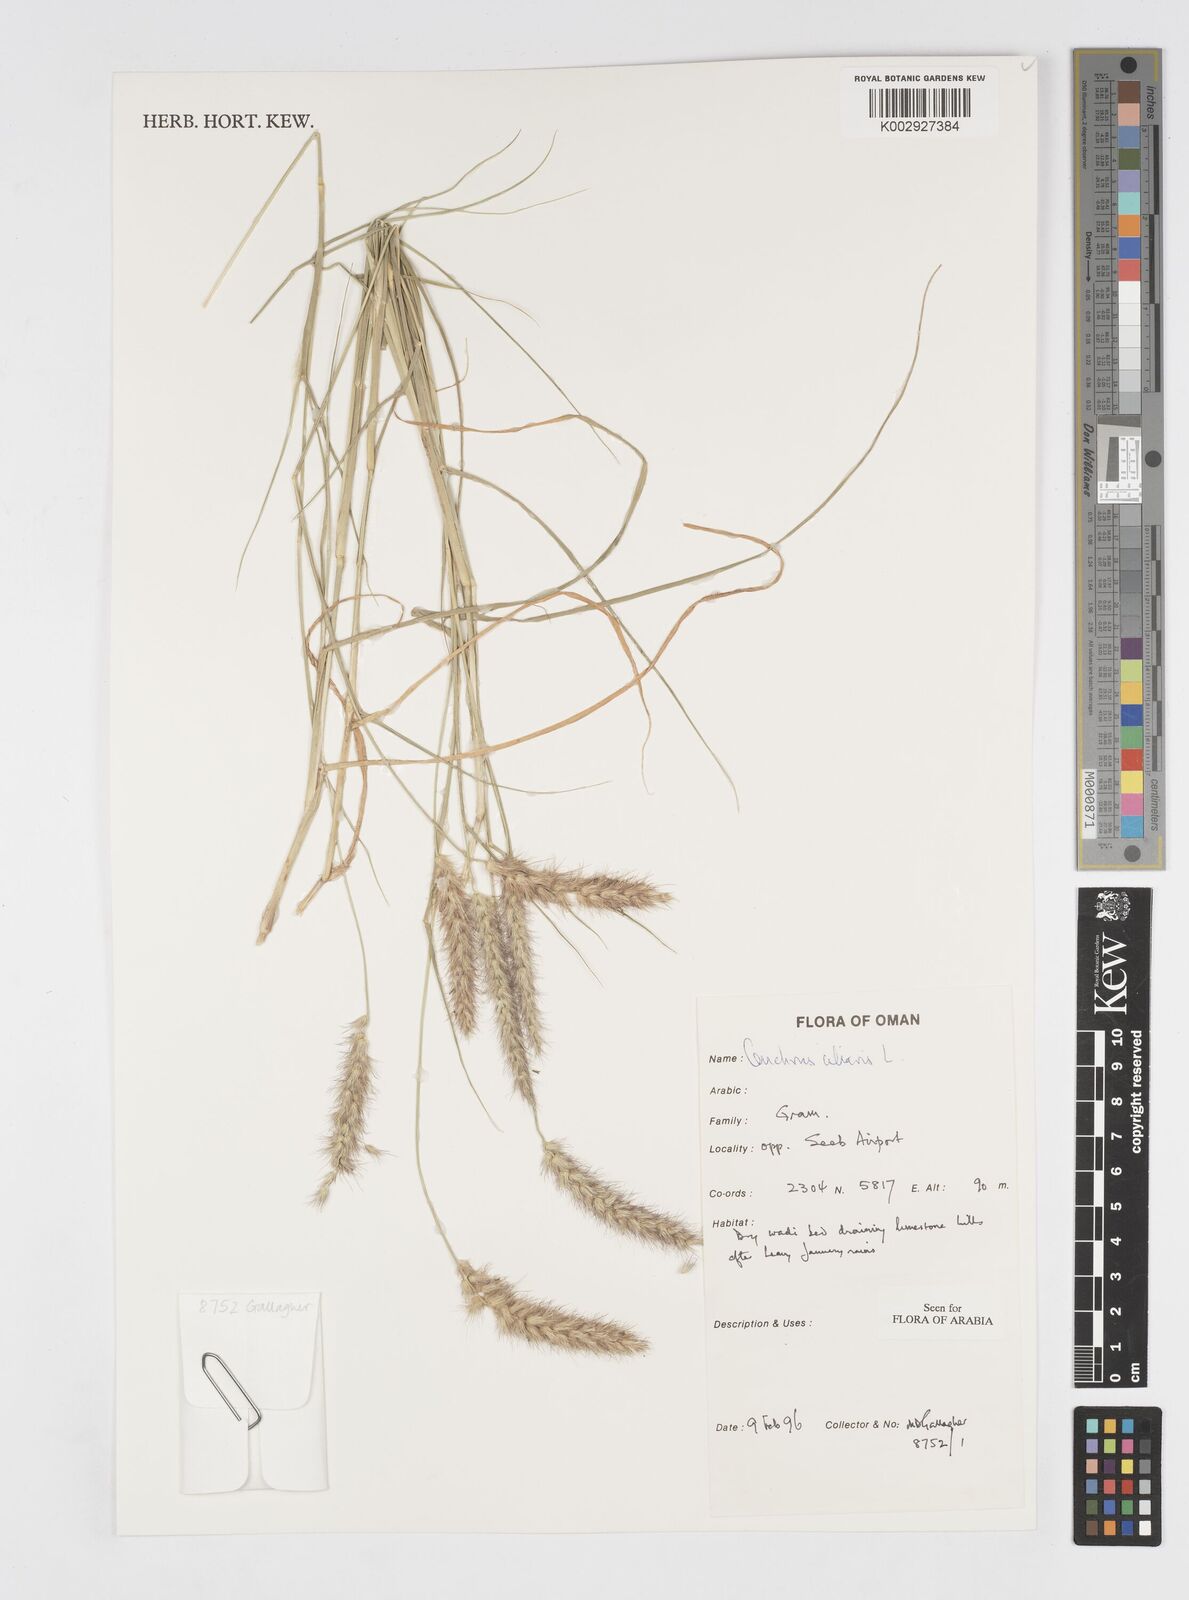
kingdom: Plantae
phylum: Tracheophyta
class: Liliopsida
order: Poales
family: Poaceae
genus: Cenchrus
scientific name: Cenchrus ciliaris
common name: Buffelgrass
